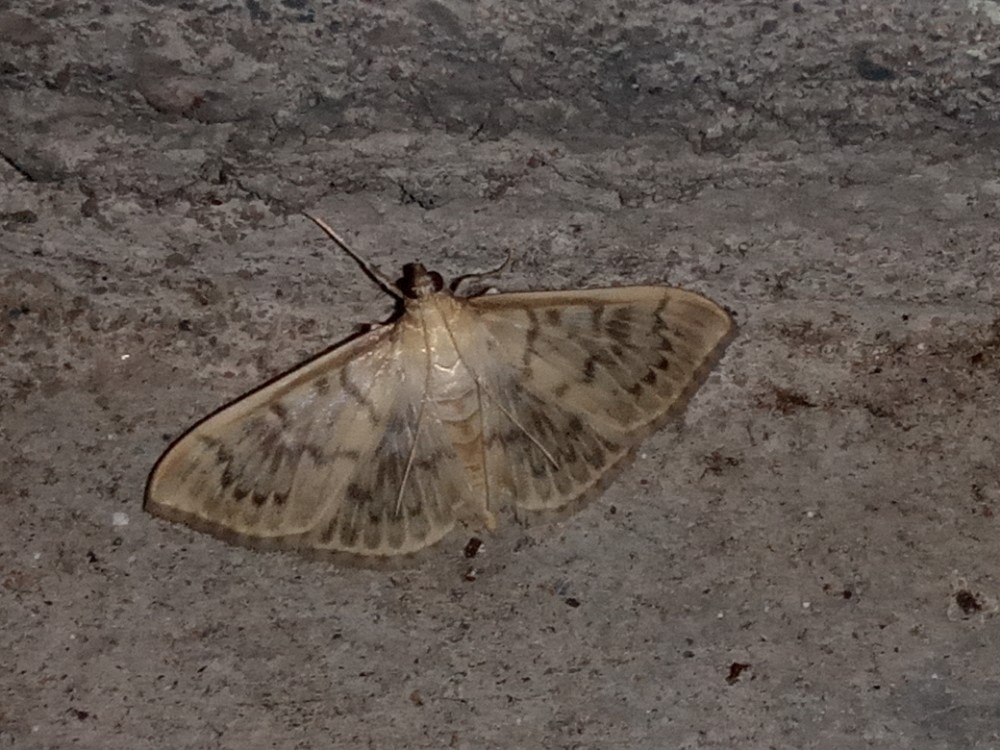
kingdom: Animalia
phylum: Arthropoda
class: Insecta
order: Lepidoptera
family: Crambidae
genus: Patania
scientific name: Patania ruralis
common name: Perlemorshalvmøl
